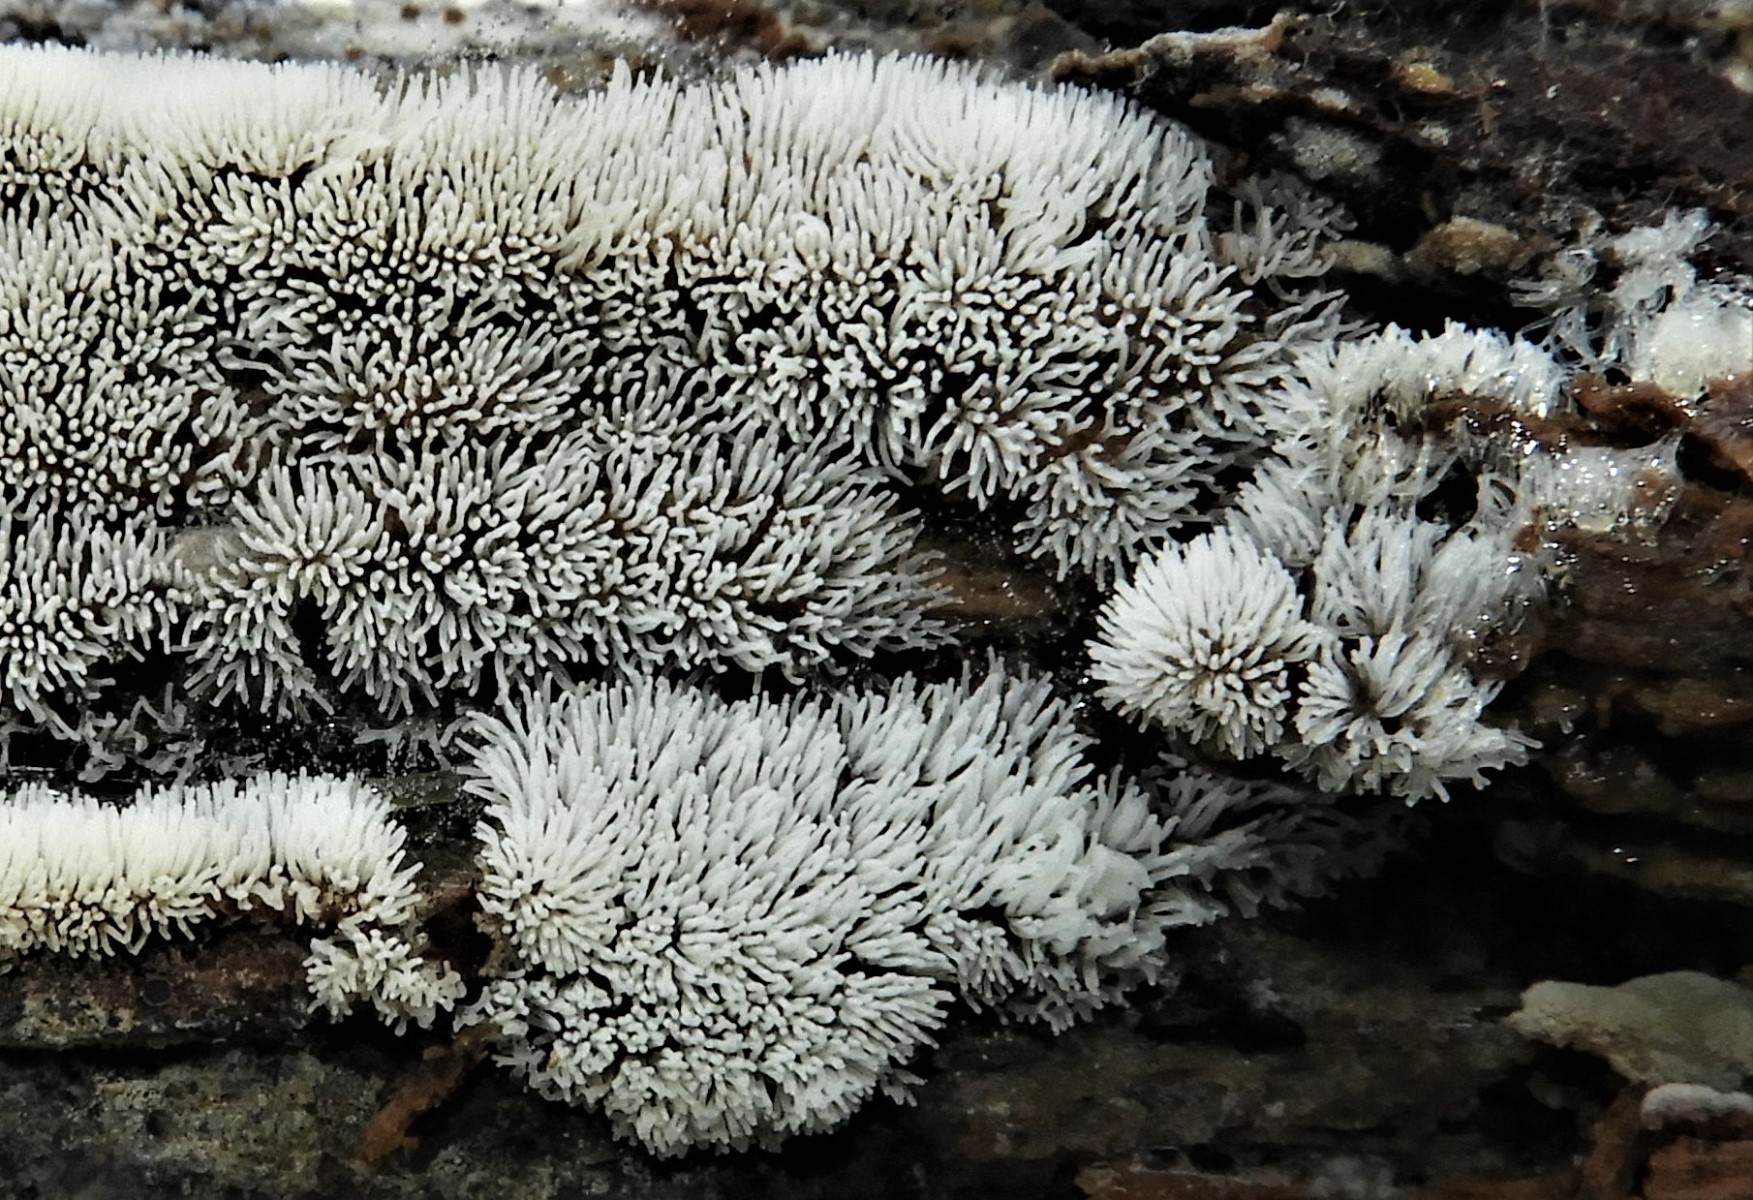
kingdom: Protozoa
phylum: Mycetozoa
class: Protosteliomycetes
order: Ceratiomyxales
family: Ceratiomyxaceae
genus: Ceratiomyxa
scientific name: Ceratiomyxa fruticulosa
